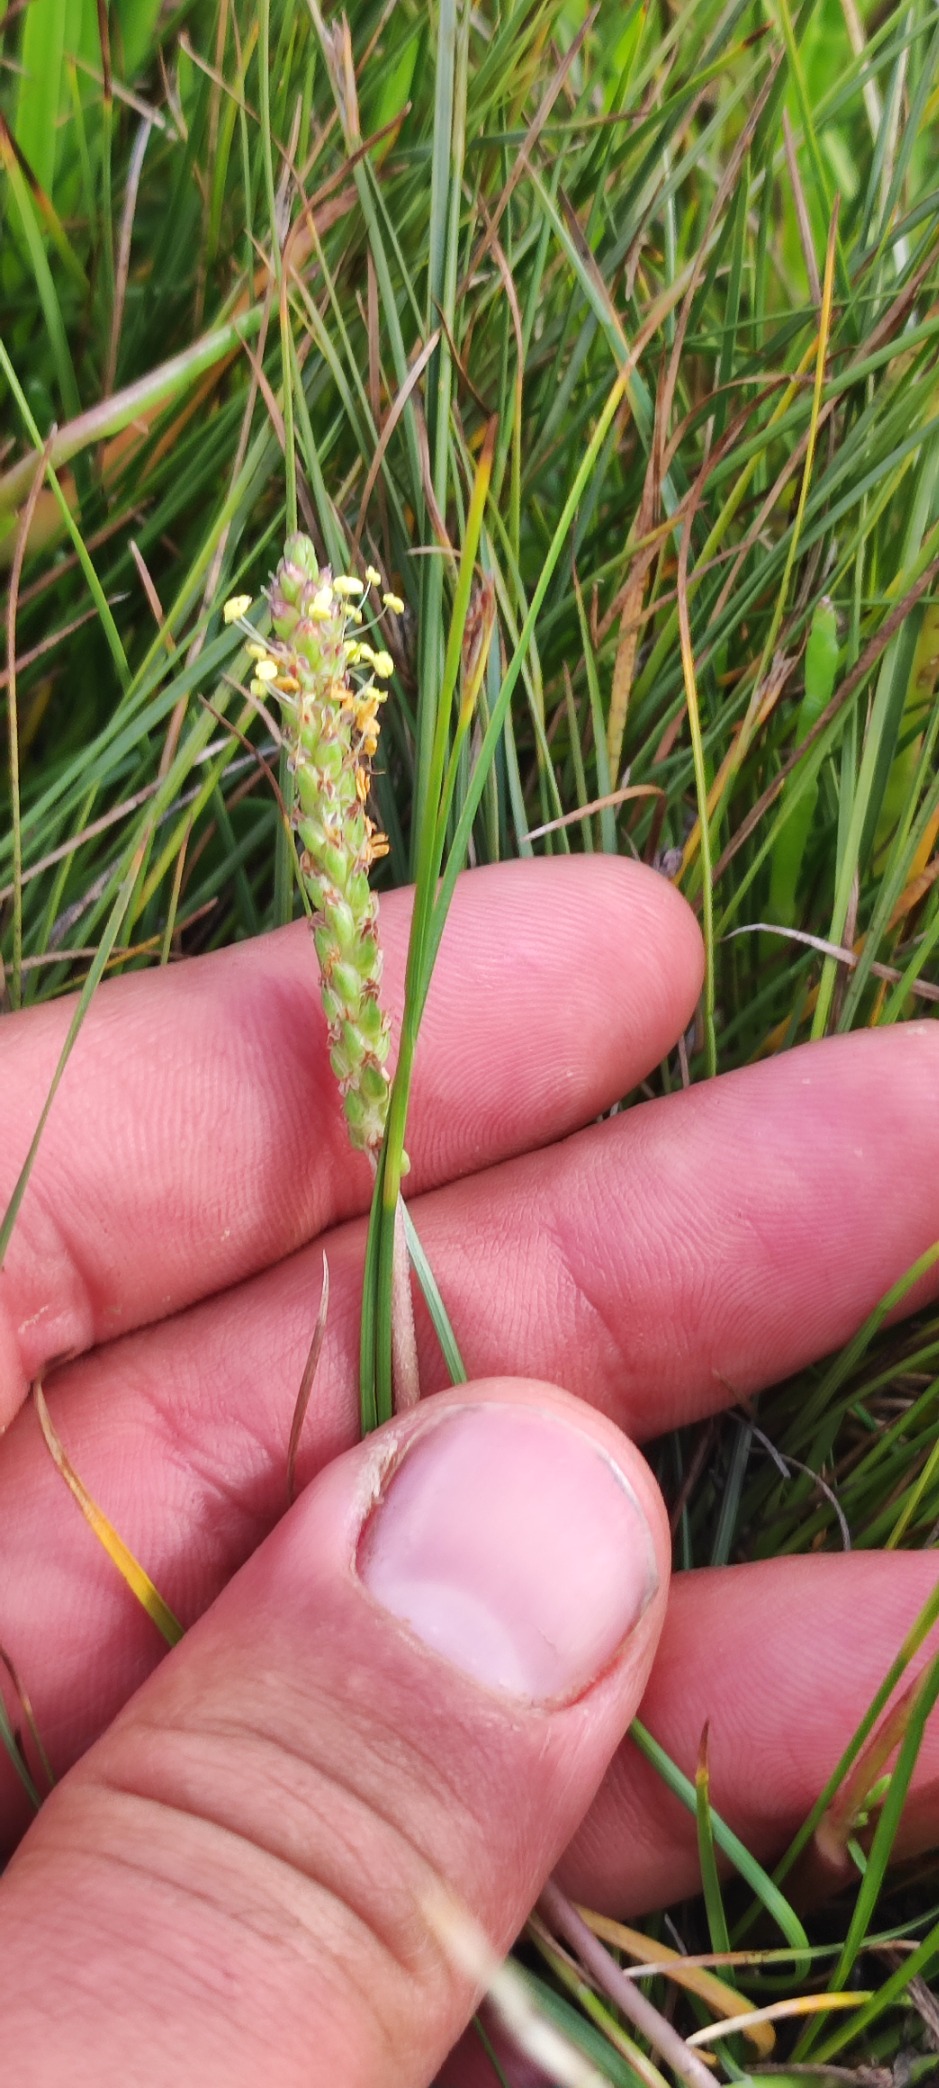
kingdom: Plantae
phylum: Tracheophyta
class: Magnoliopsida
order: Lamiales
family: Plantaginaceae
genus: Plantago
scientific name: Plantago maritima
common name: Strand-vejbred
